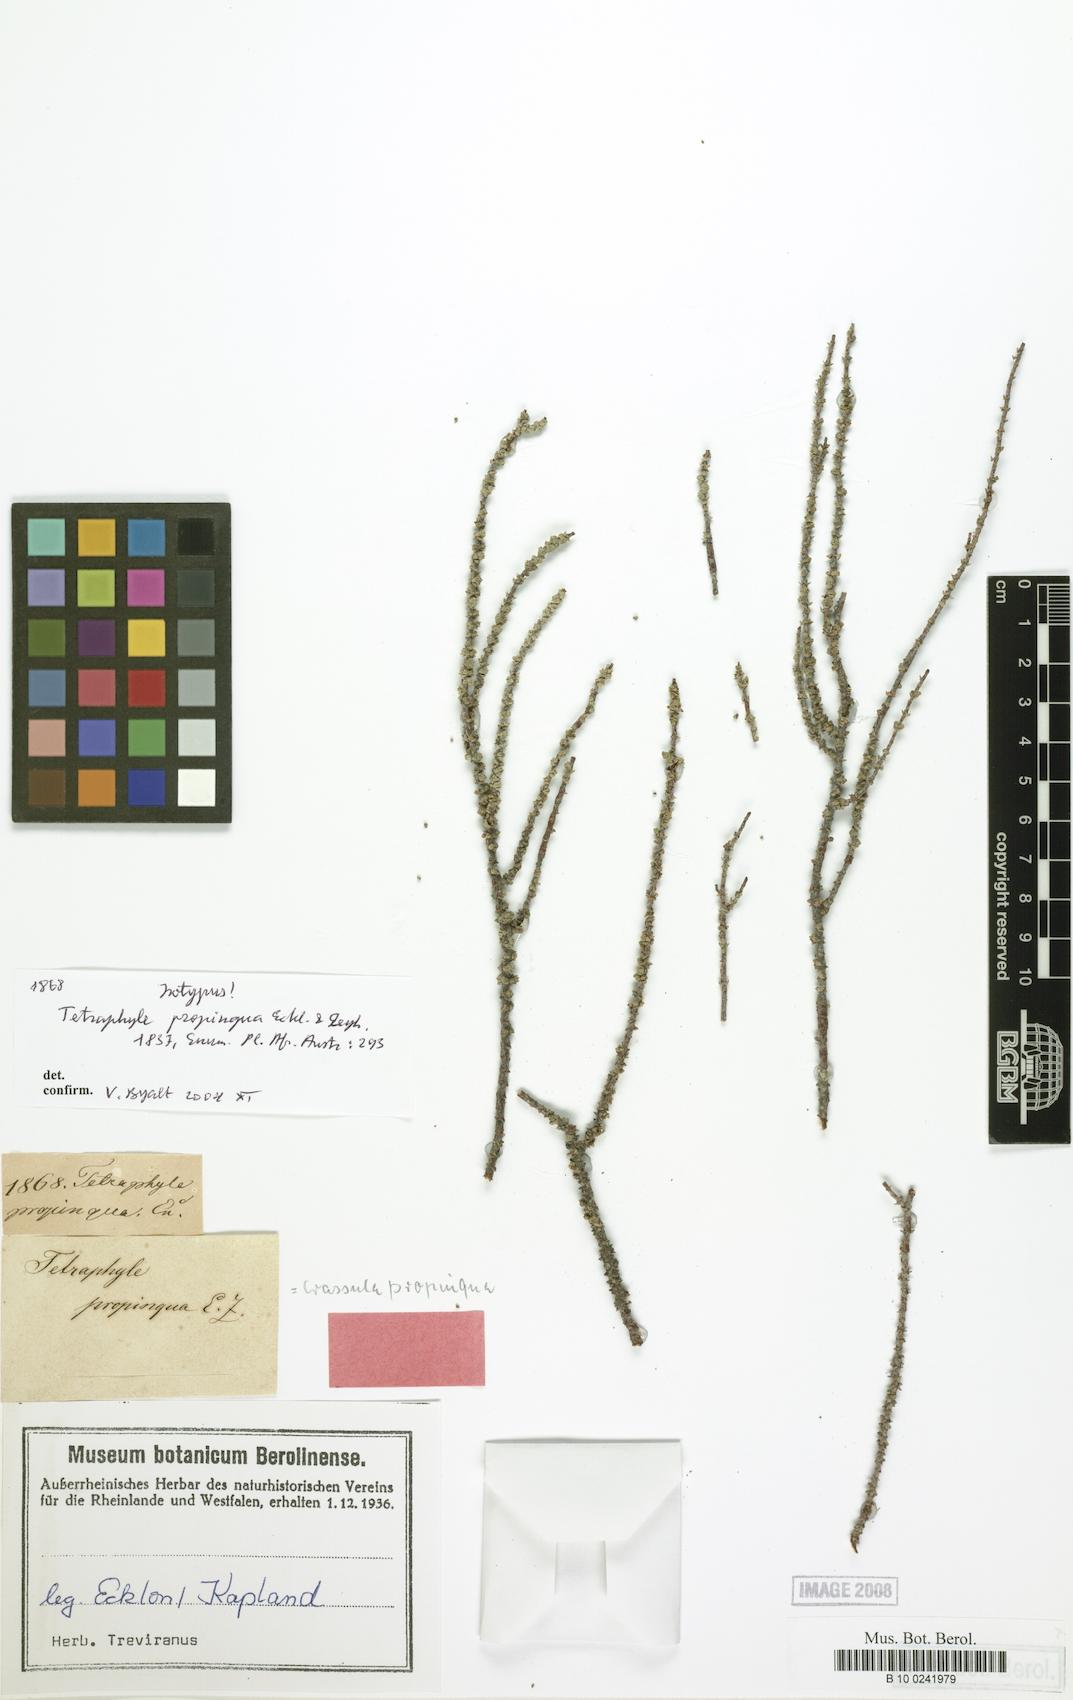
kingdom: Plantae
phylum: Tracheophyta
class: Magnoliopsida
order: Saxifragales
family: Crassulaceae
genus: Crassula
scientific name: Crassula muscosa
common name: Toy-cypress
